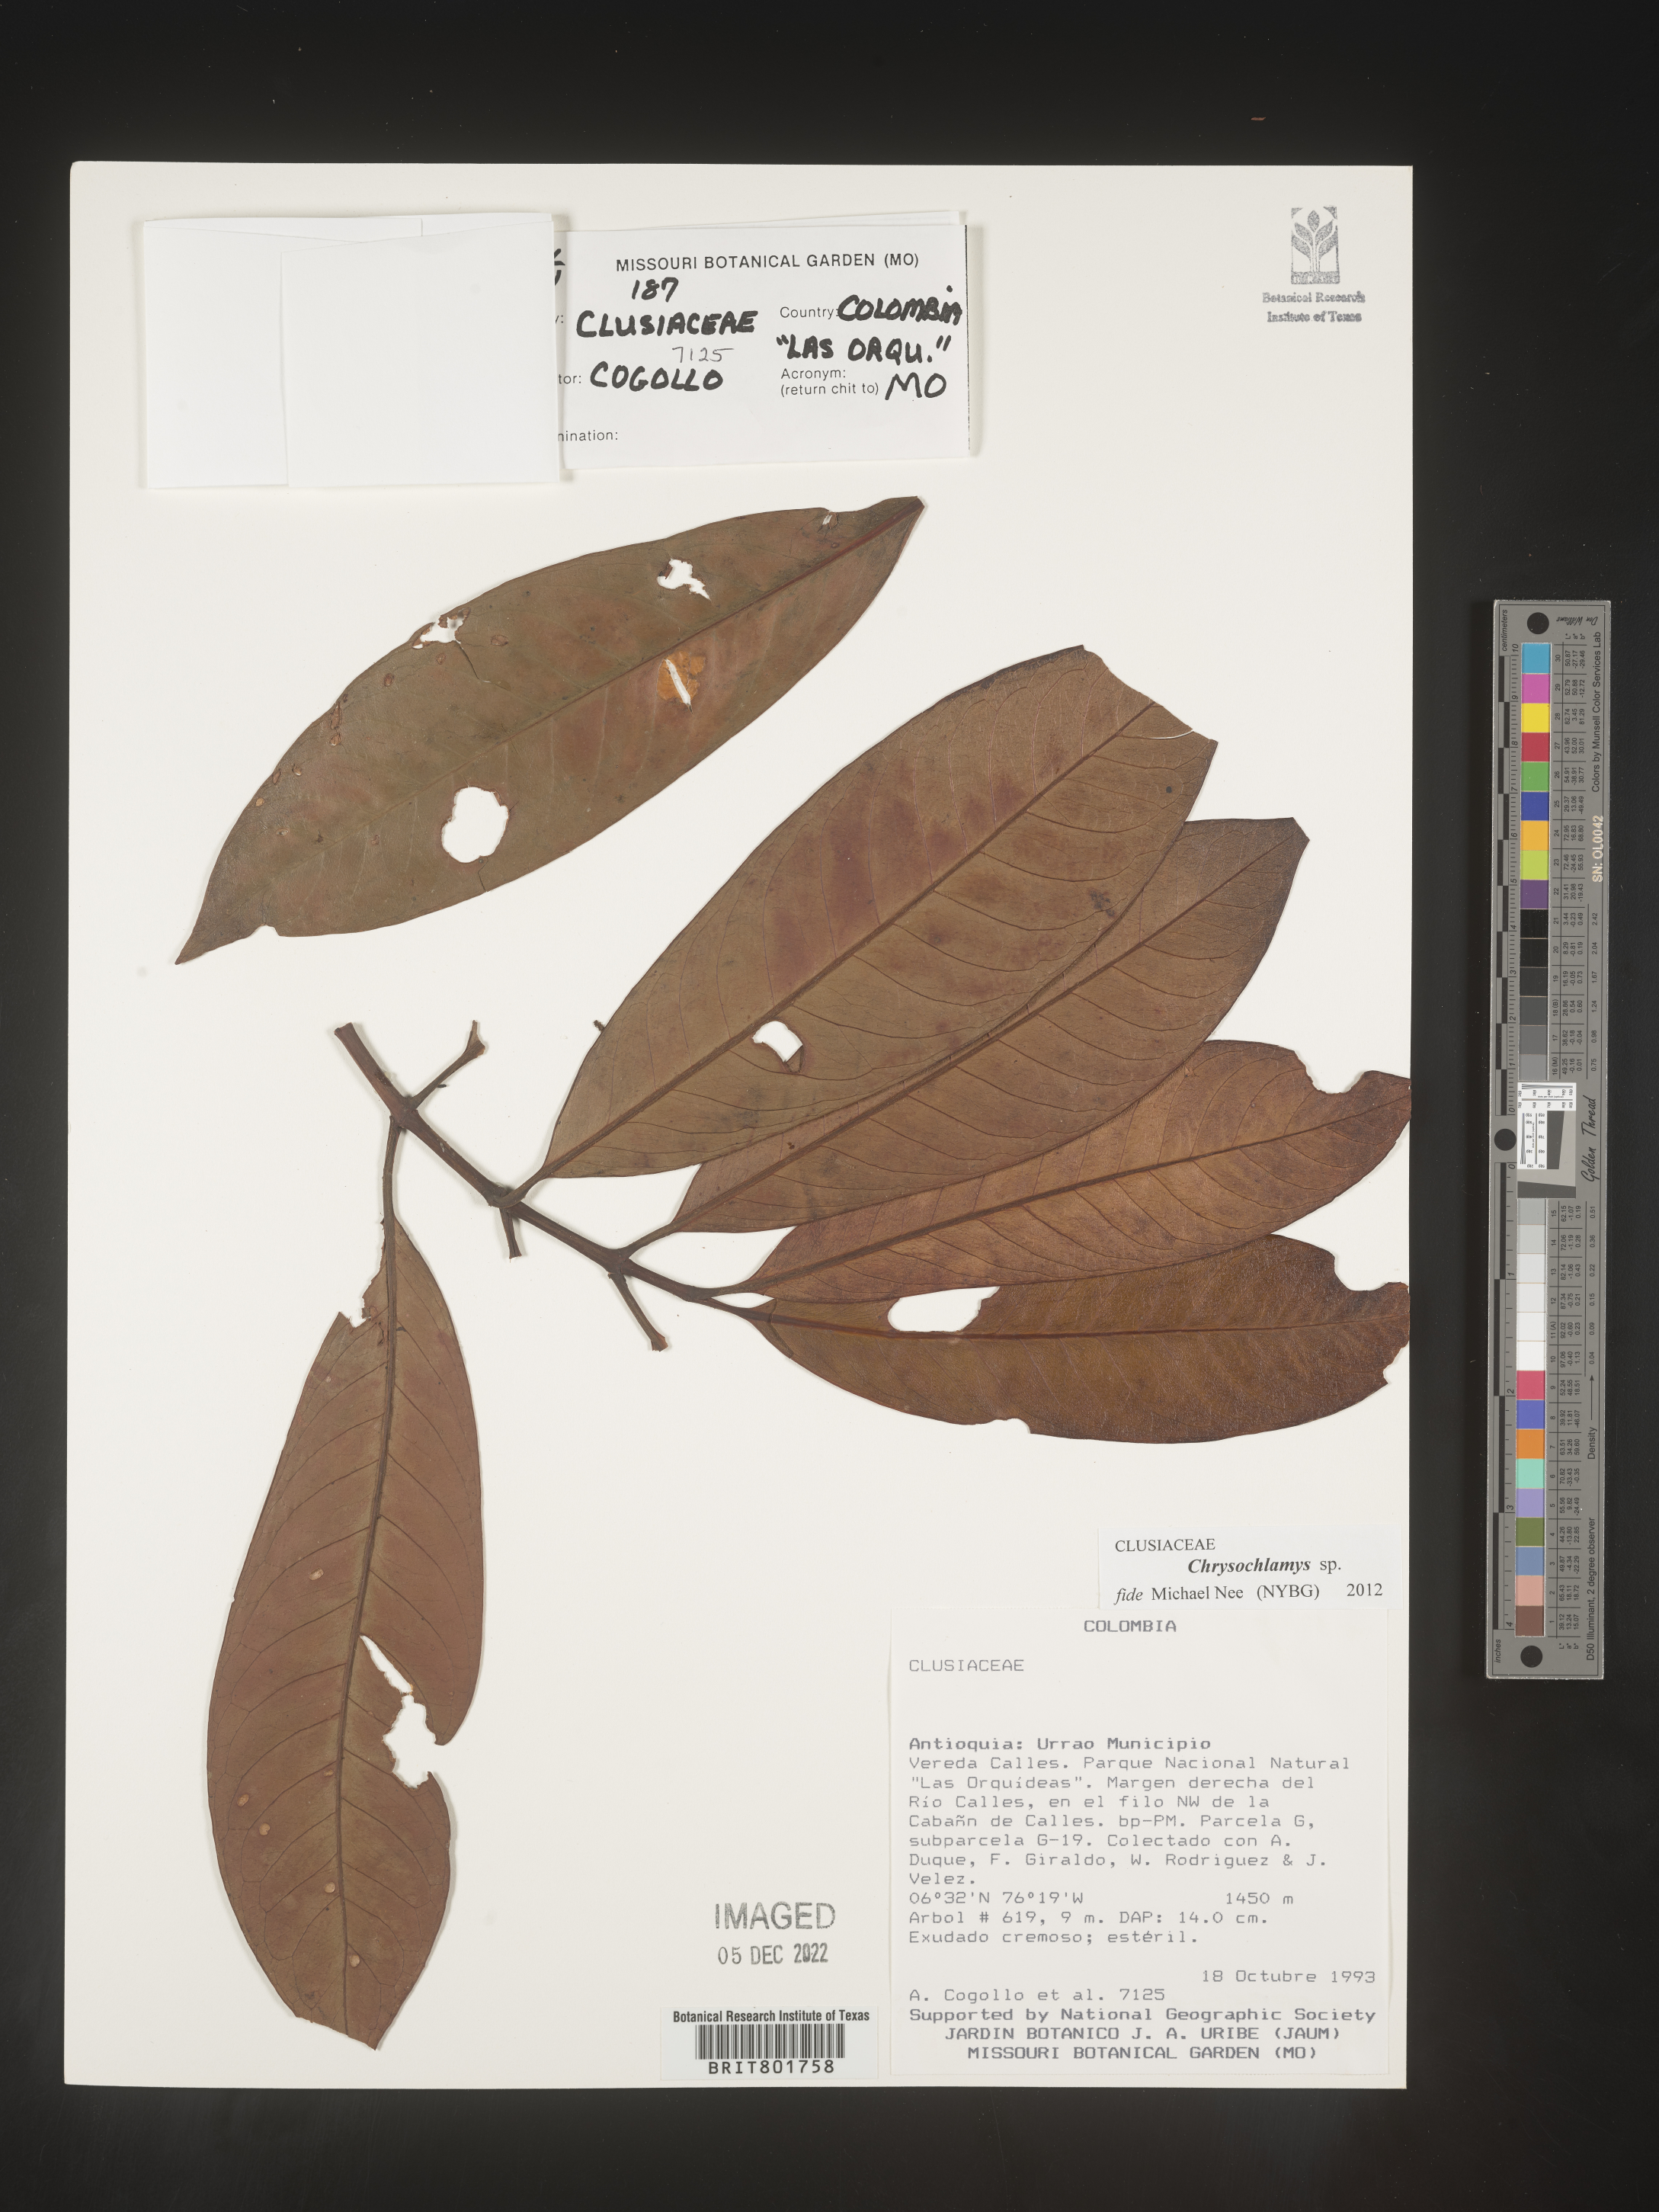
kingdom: Plantae
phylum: Tracheophyta
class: Magnoliopsida
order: Malpighiales
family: Clusiaceae
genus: Chrysochlamys
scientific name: Chrysochlamys
